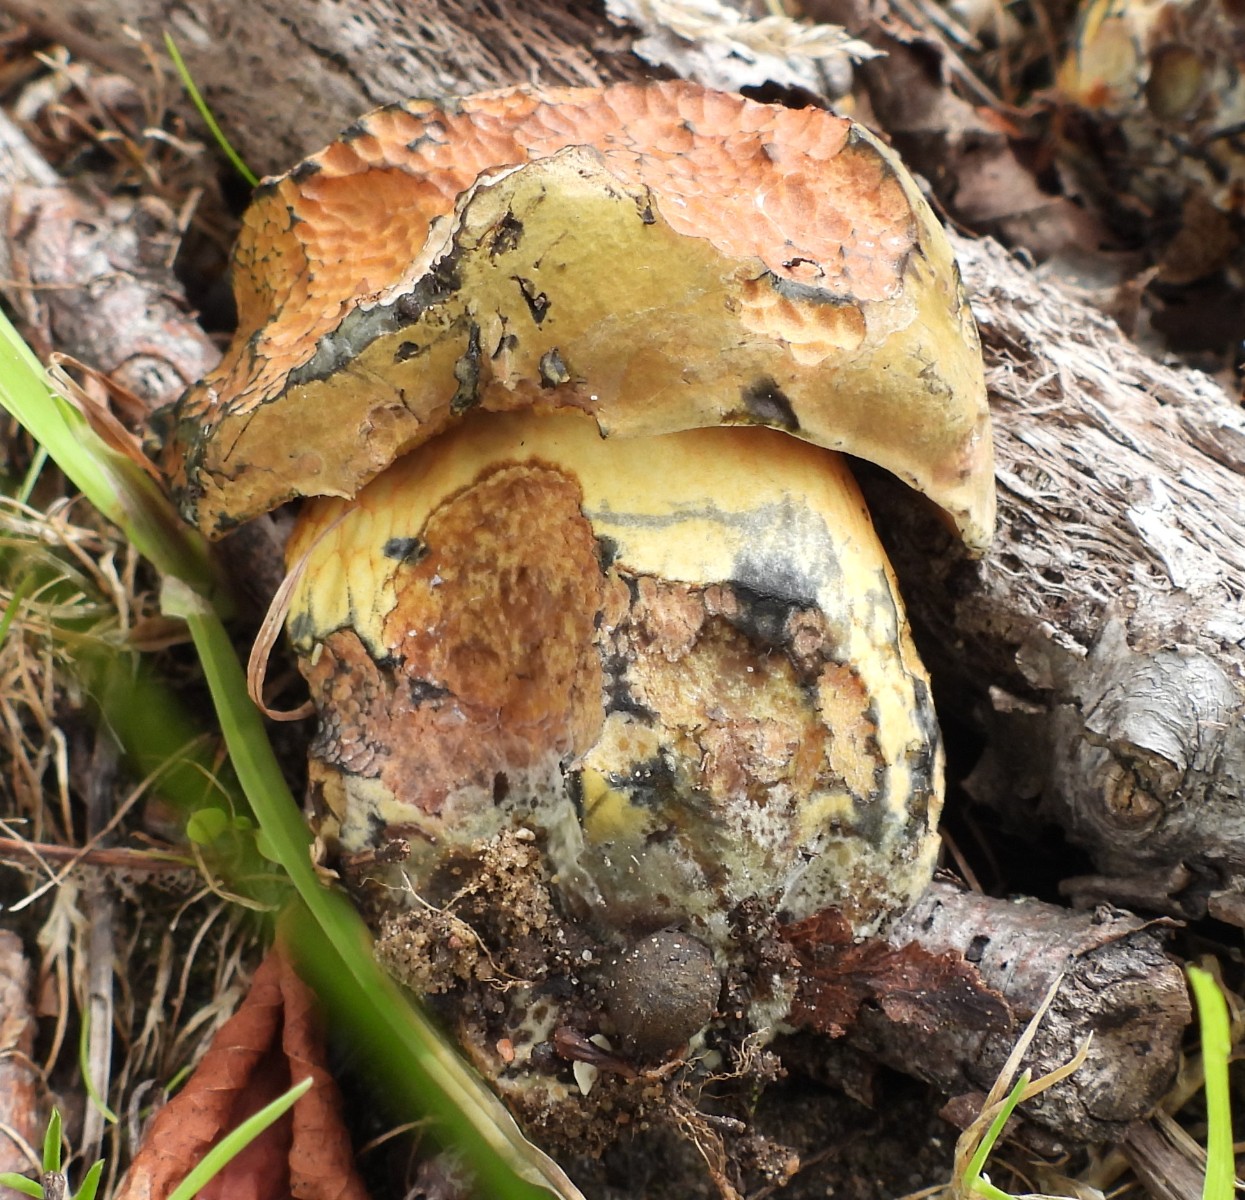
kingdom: Fungi
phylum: Basidiomycota
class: Agaricomycetes
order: Boletales
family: Boletaceae
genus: Suillellus
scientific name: Suillellus luridus
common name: netstokket indigorørhat
